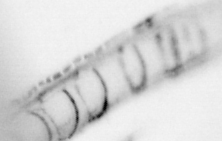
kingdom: Animalia
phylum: Chordata
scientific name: Chordata
